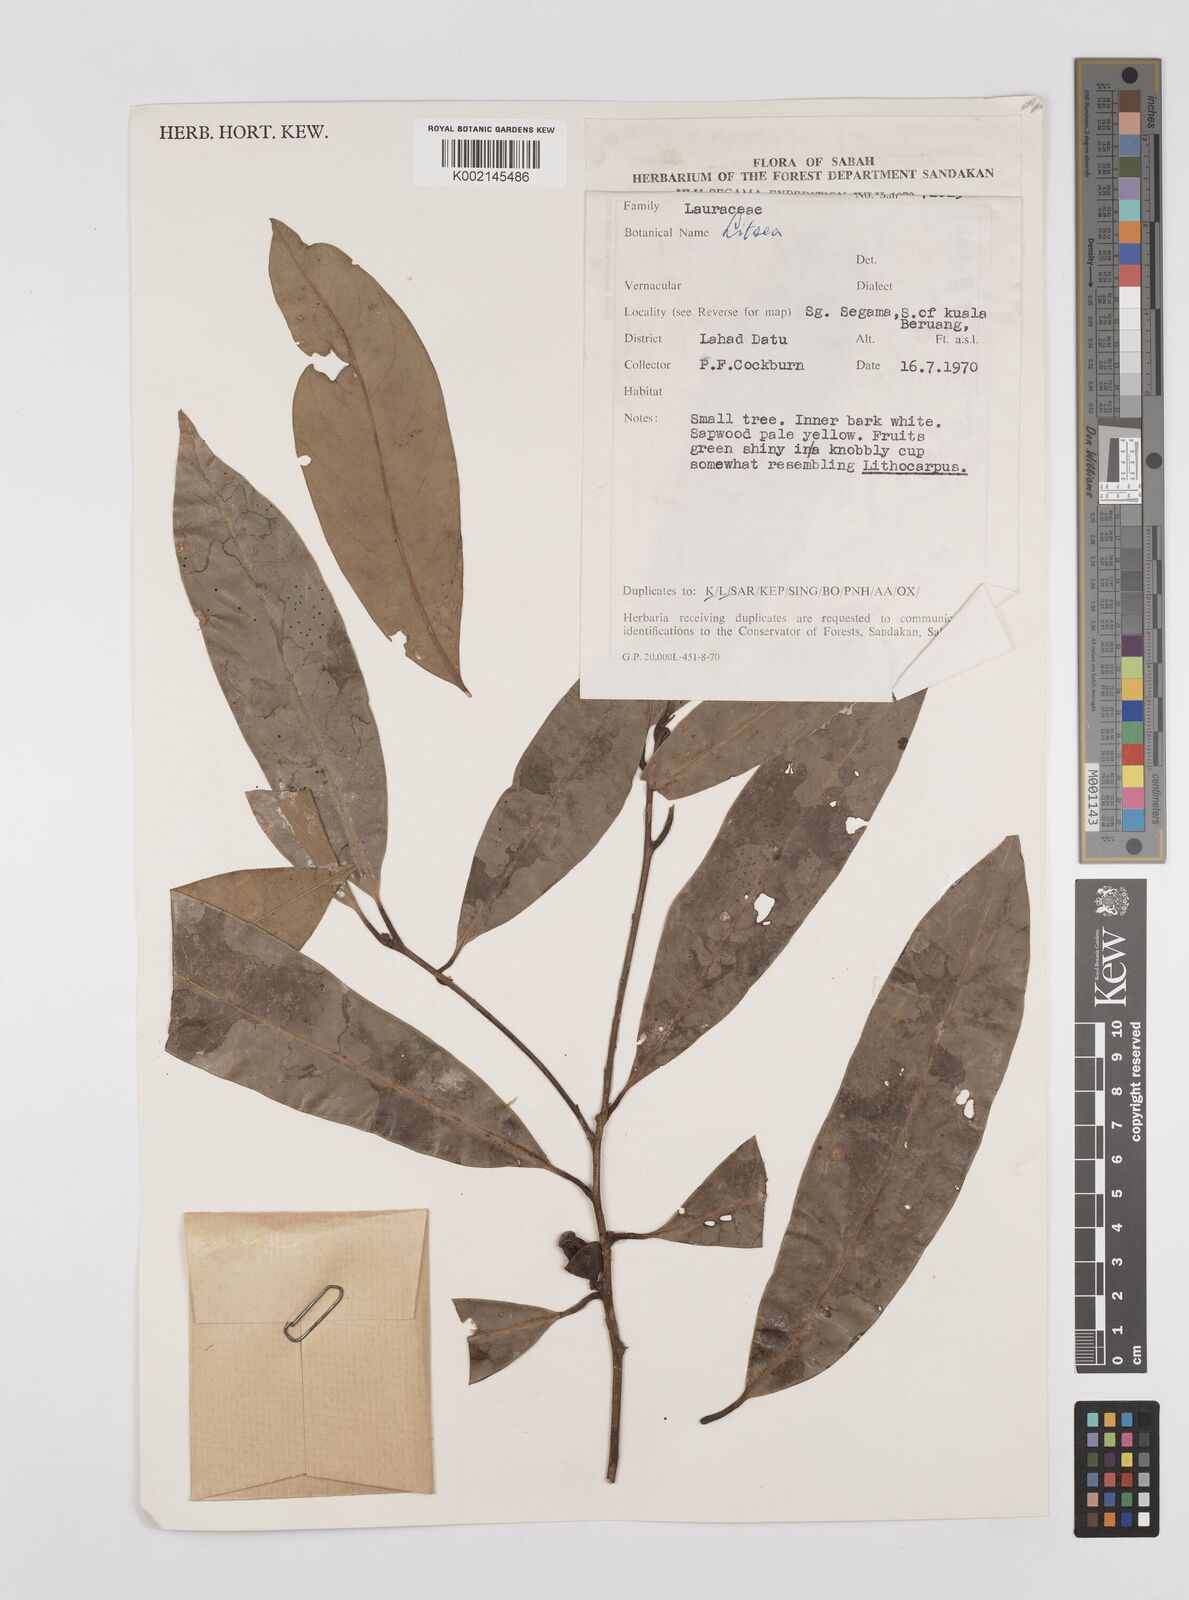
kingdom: Plantae
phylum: Tracheophyta
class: Magnoliopsida
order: Laurales
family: Lauraceae
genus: Litsea
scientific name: Litsea
